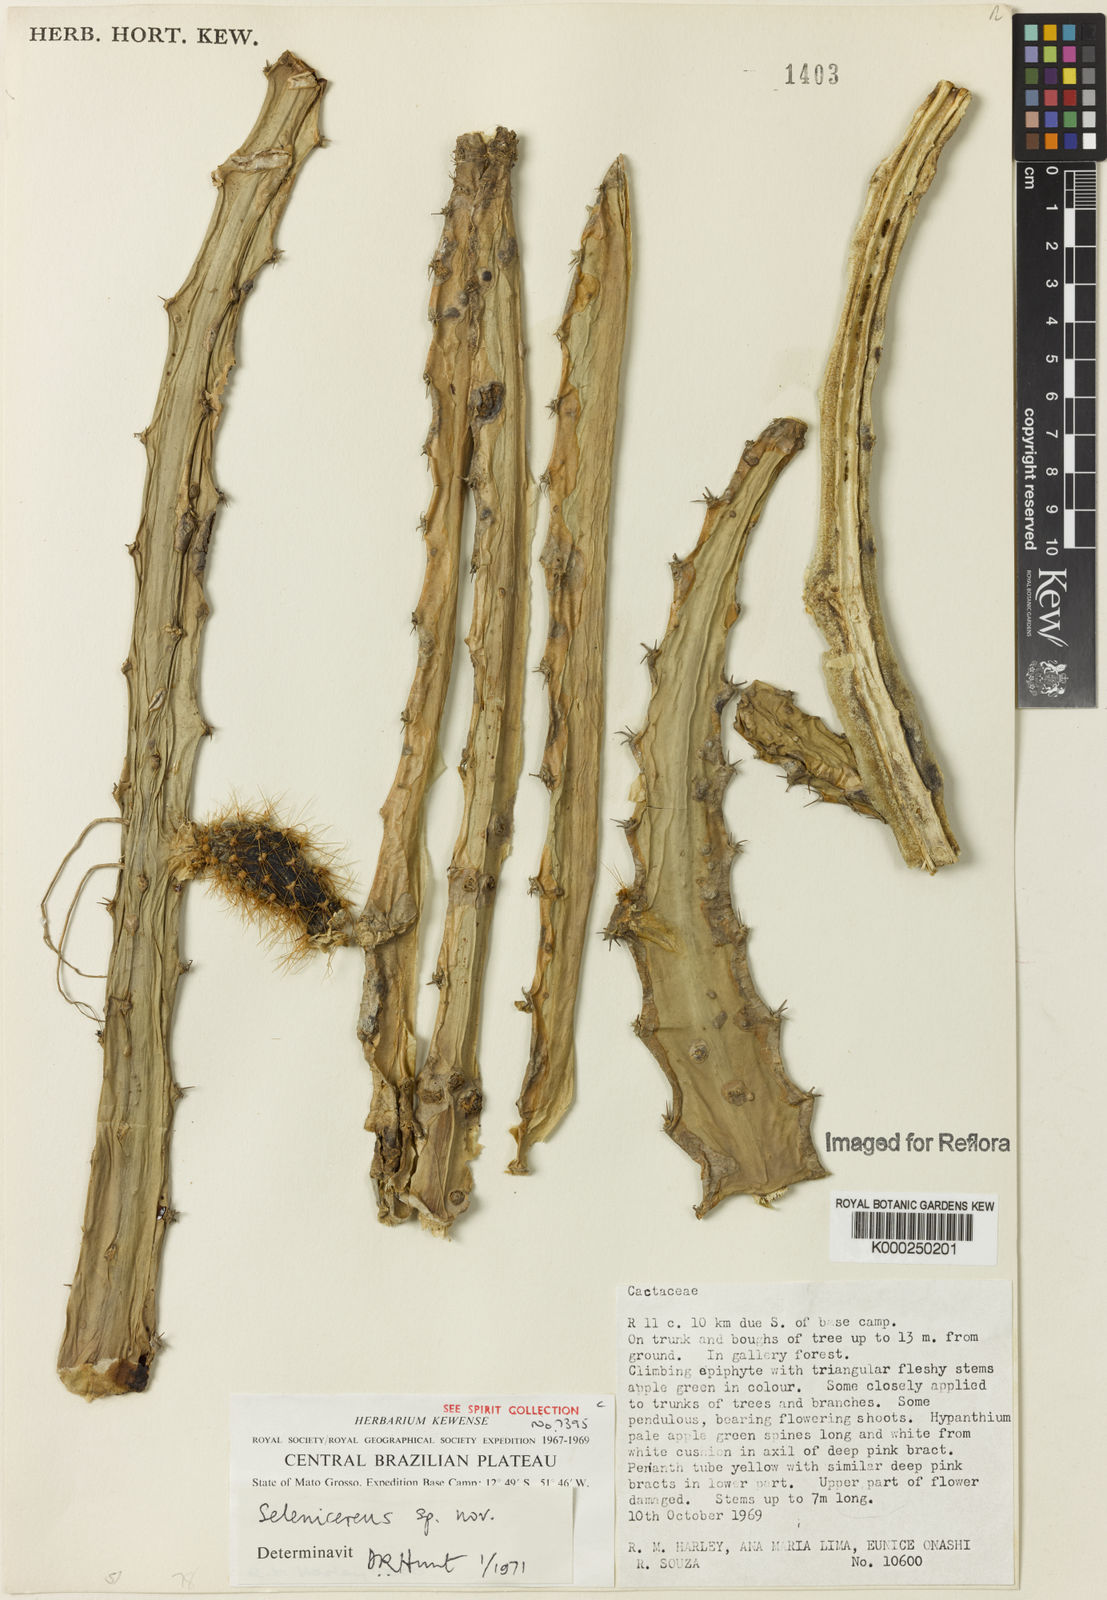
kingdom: Plantae
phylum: Tracheophyta
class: Magnoliopsida
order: Caryophyllales
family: Cactaceae
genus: Selenicereus
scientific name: Selenicereus
